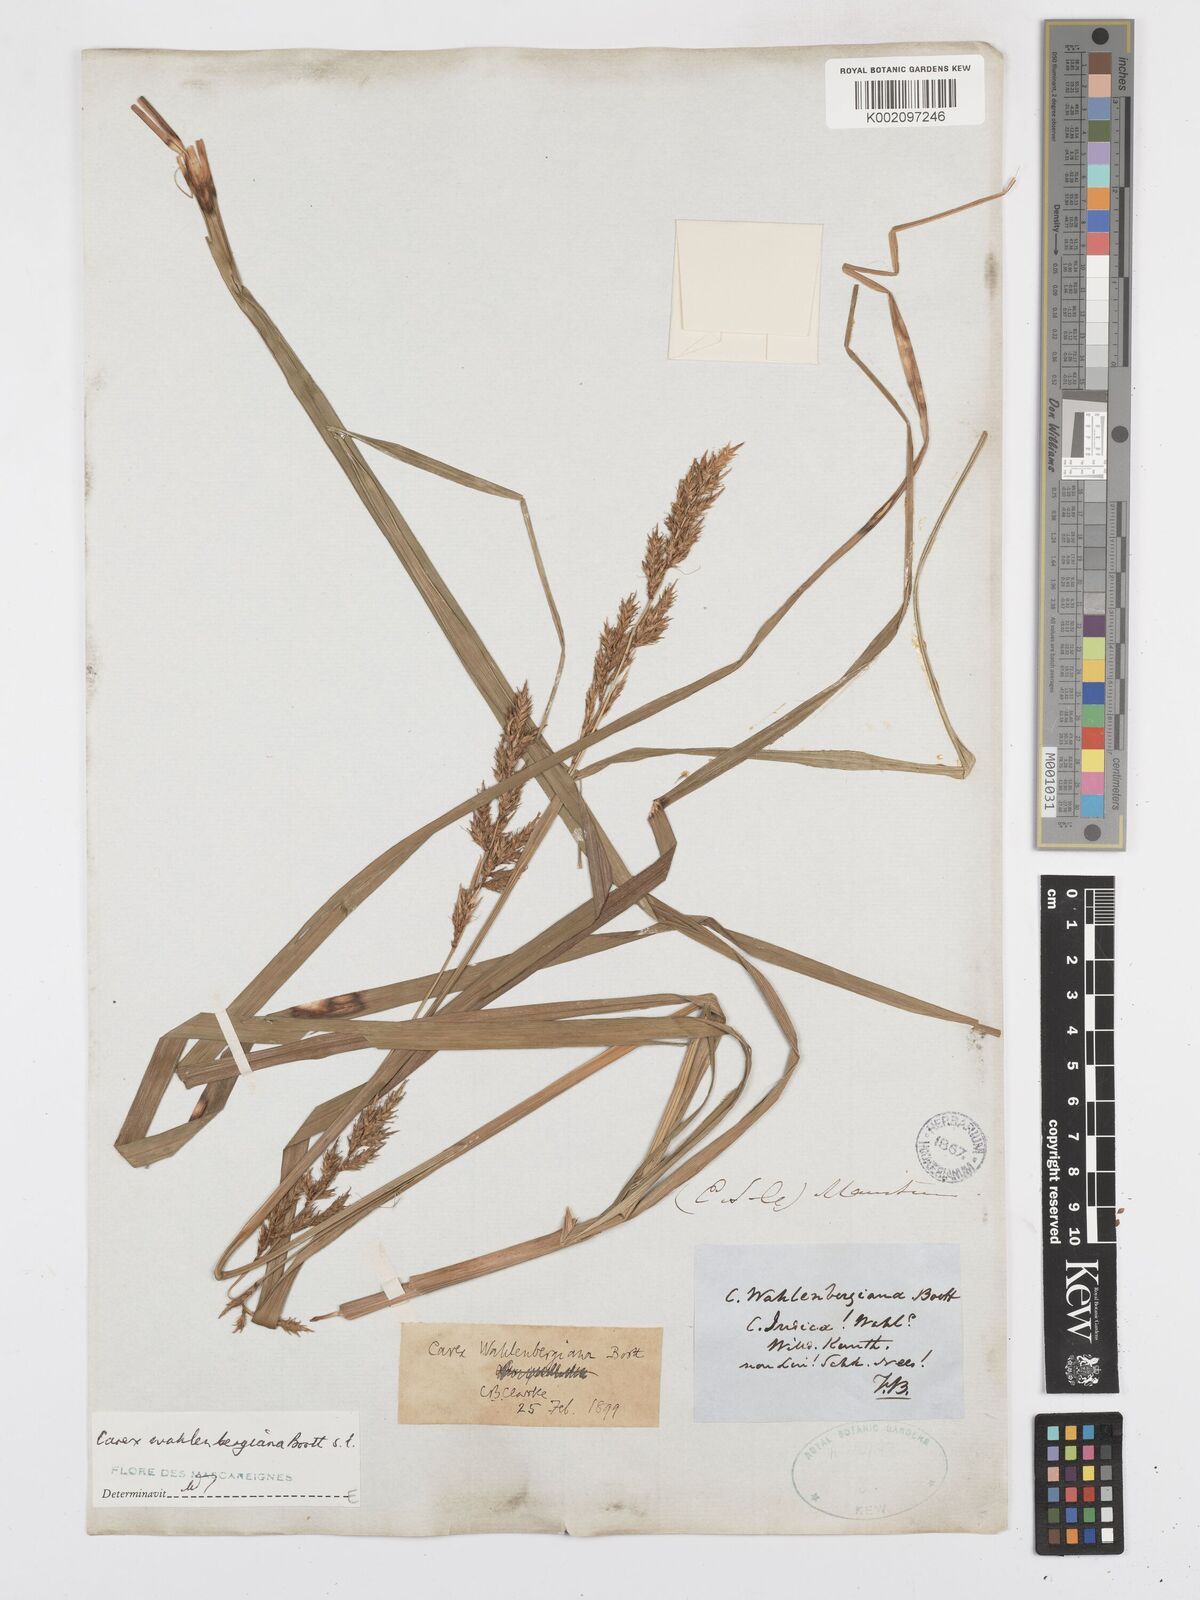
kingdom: Plantae
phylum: Tracheophyta
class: Liliopsida
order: Poales
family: Cyperaceae
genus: Carex
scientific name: Carex wahlenbergiana
